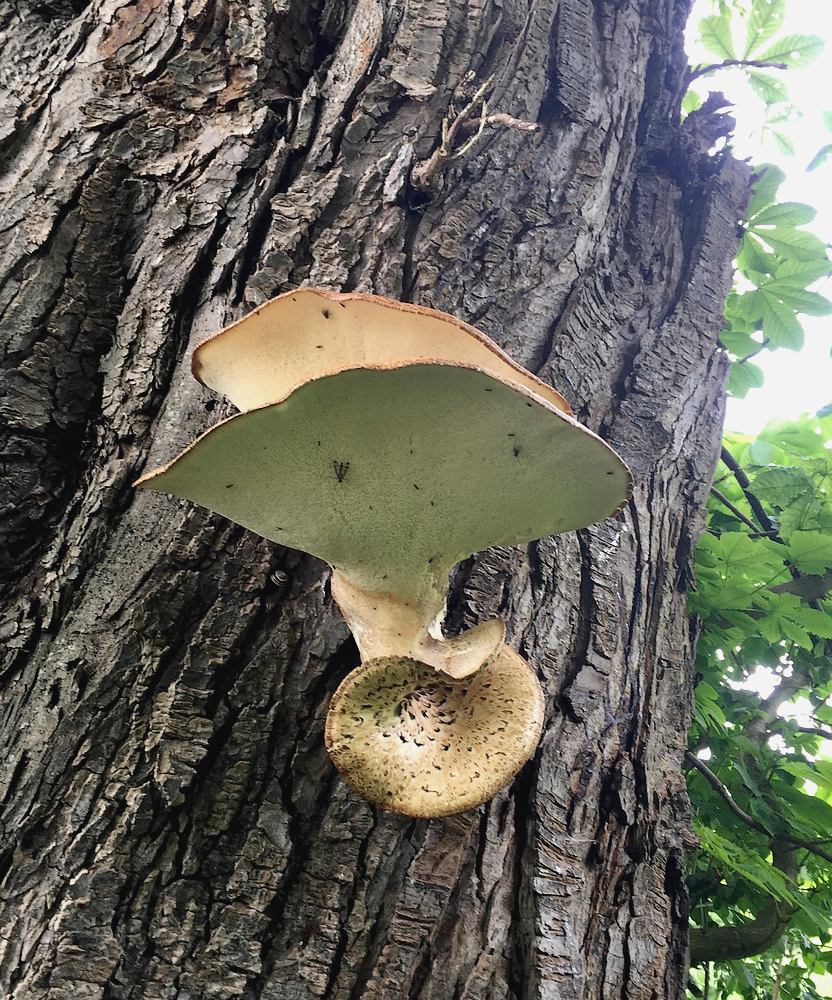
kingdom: Fungi
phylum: Basidiomycota
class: Agaricomycetes
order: Polyporales
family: Polyporaceae
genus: Cerioporus
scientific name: Cerioporus squamosus
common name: skællet stilkporesvamp
